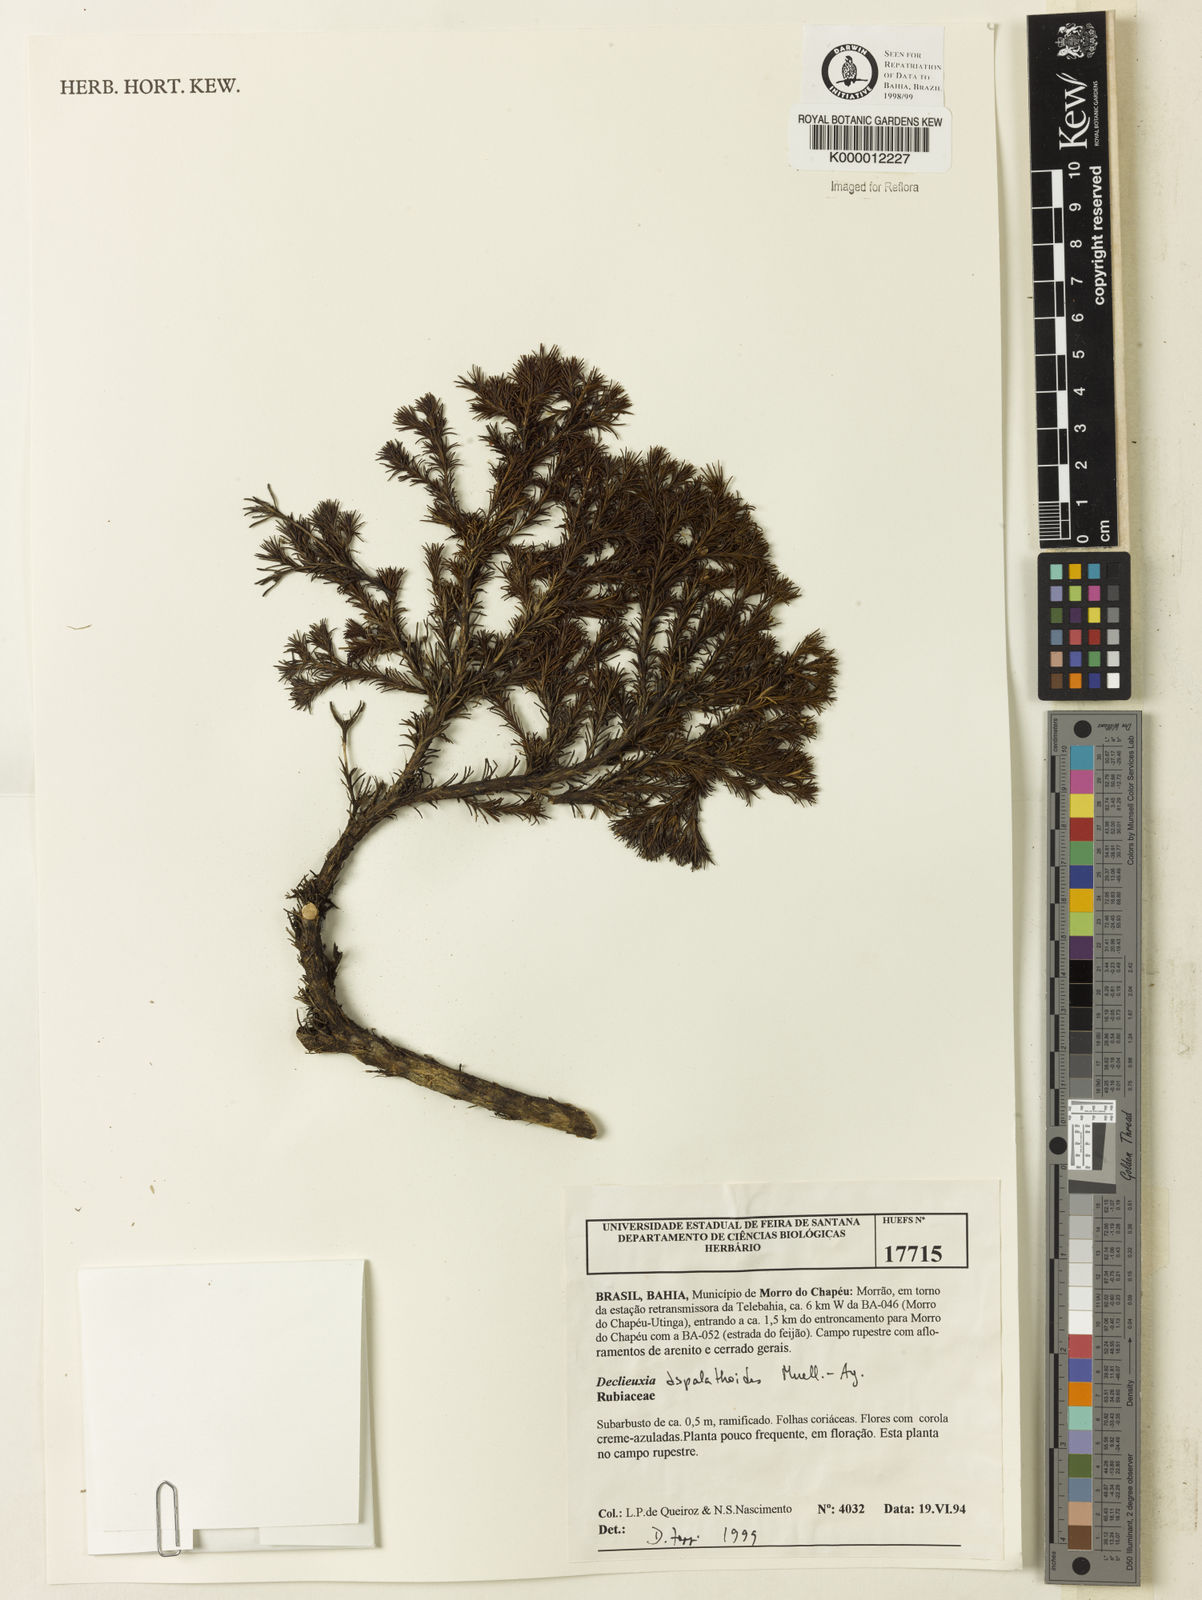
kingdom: Plantae
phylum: Tracheophyta
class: Magnoliopsida
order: Gentianales
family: Rubiaceae
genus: Declieuxia
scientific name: Declieuxia aspalathoides
